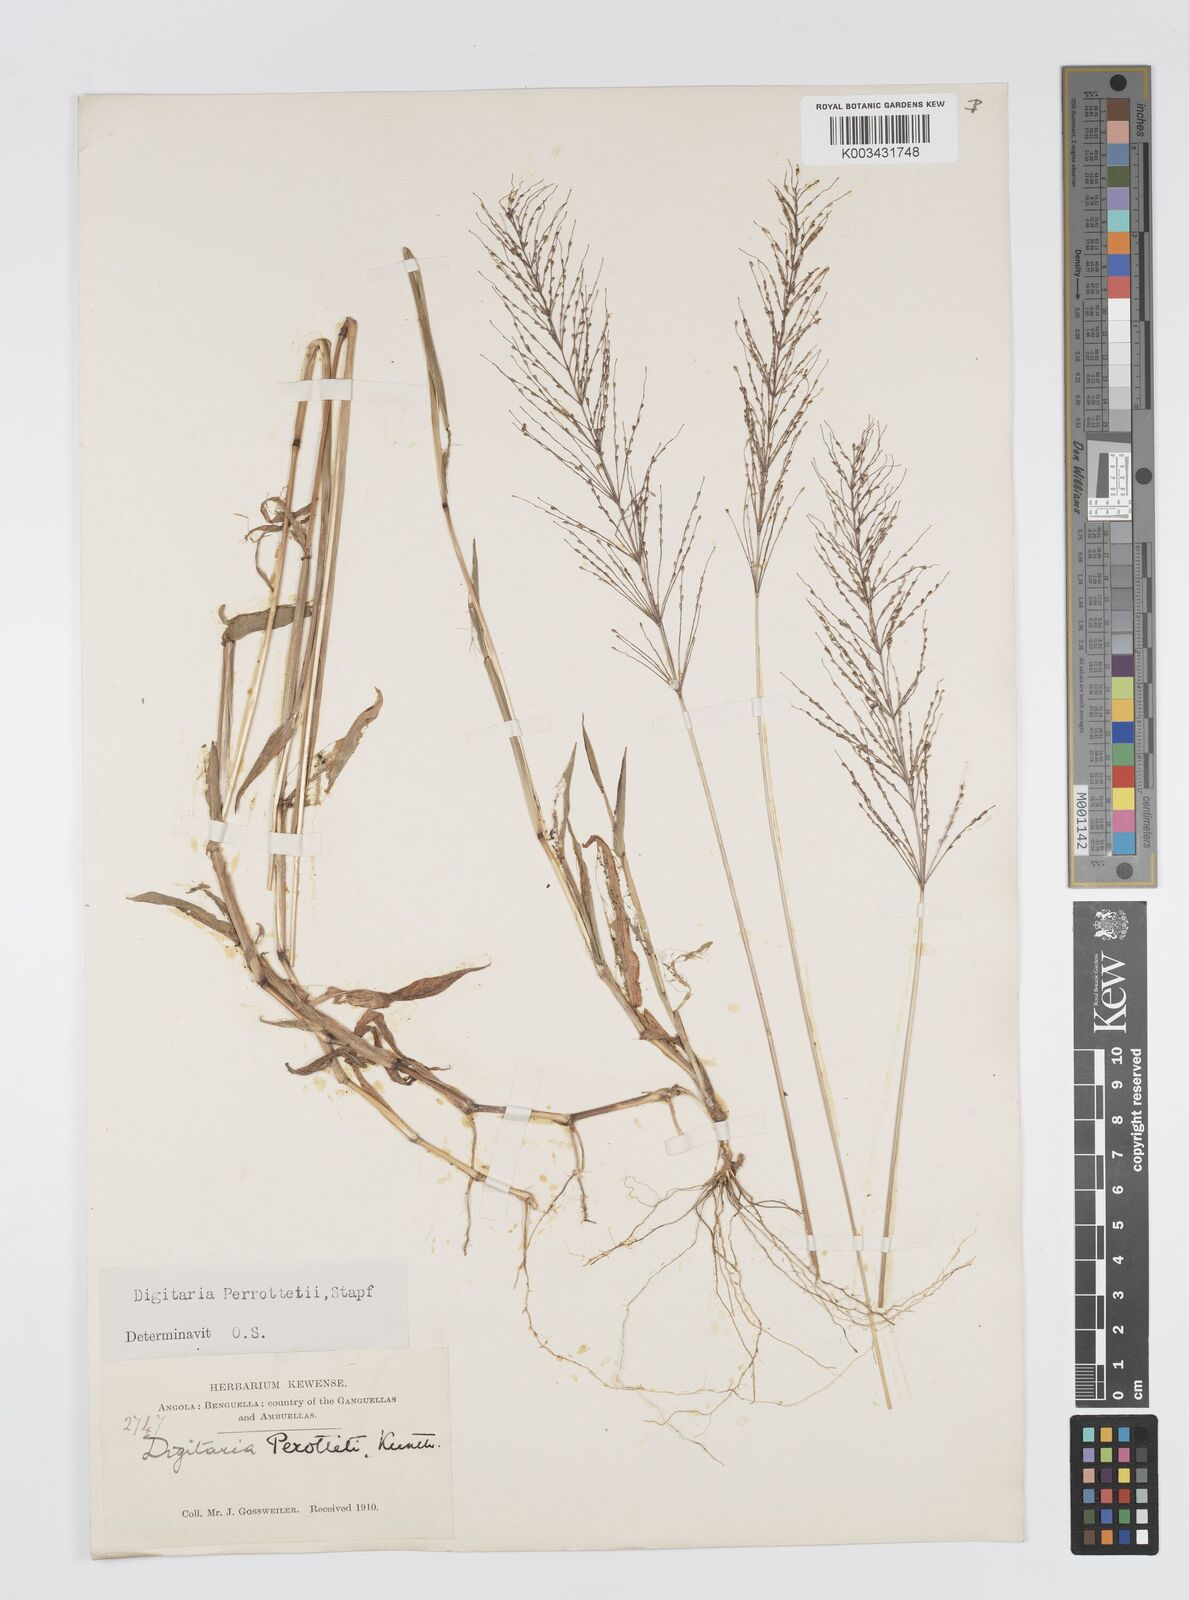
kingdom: Plantae
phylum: Tracheophyta
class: Liliopsida
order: Poales
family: Poaceae
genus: Digitaria
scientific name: Digitaria perrottetii
